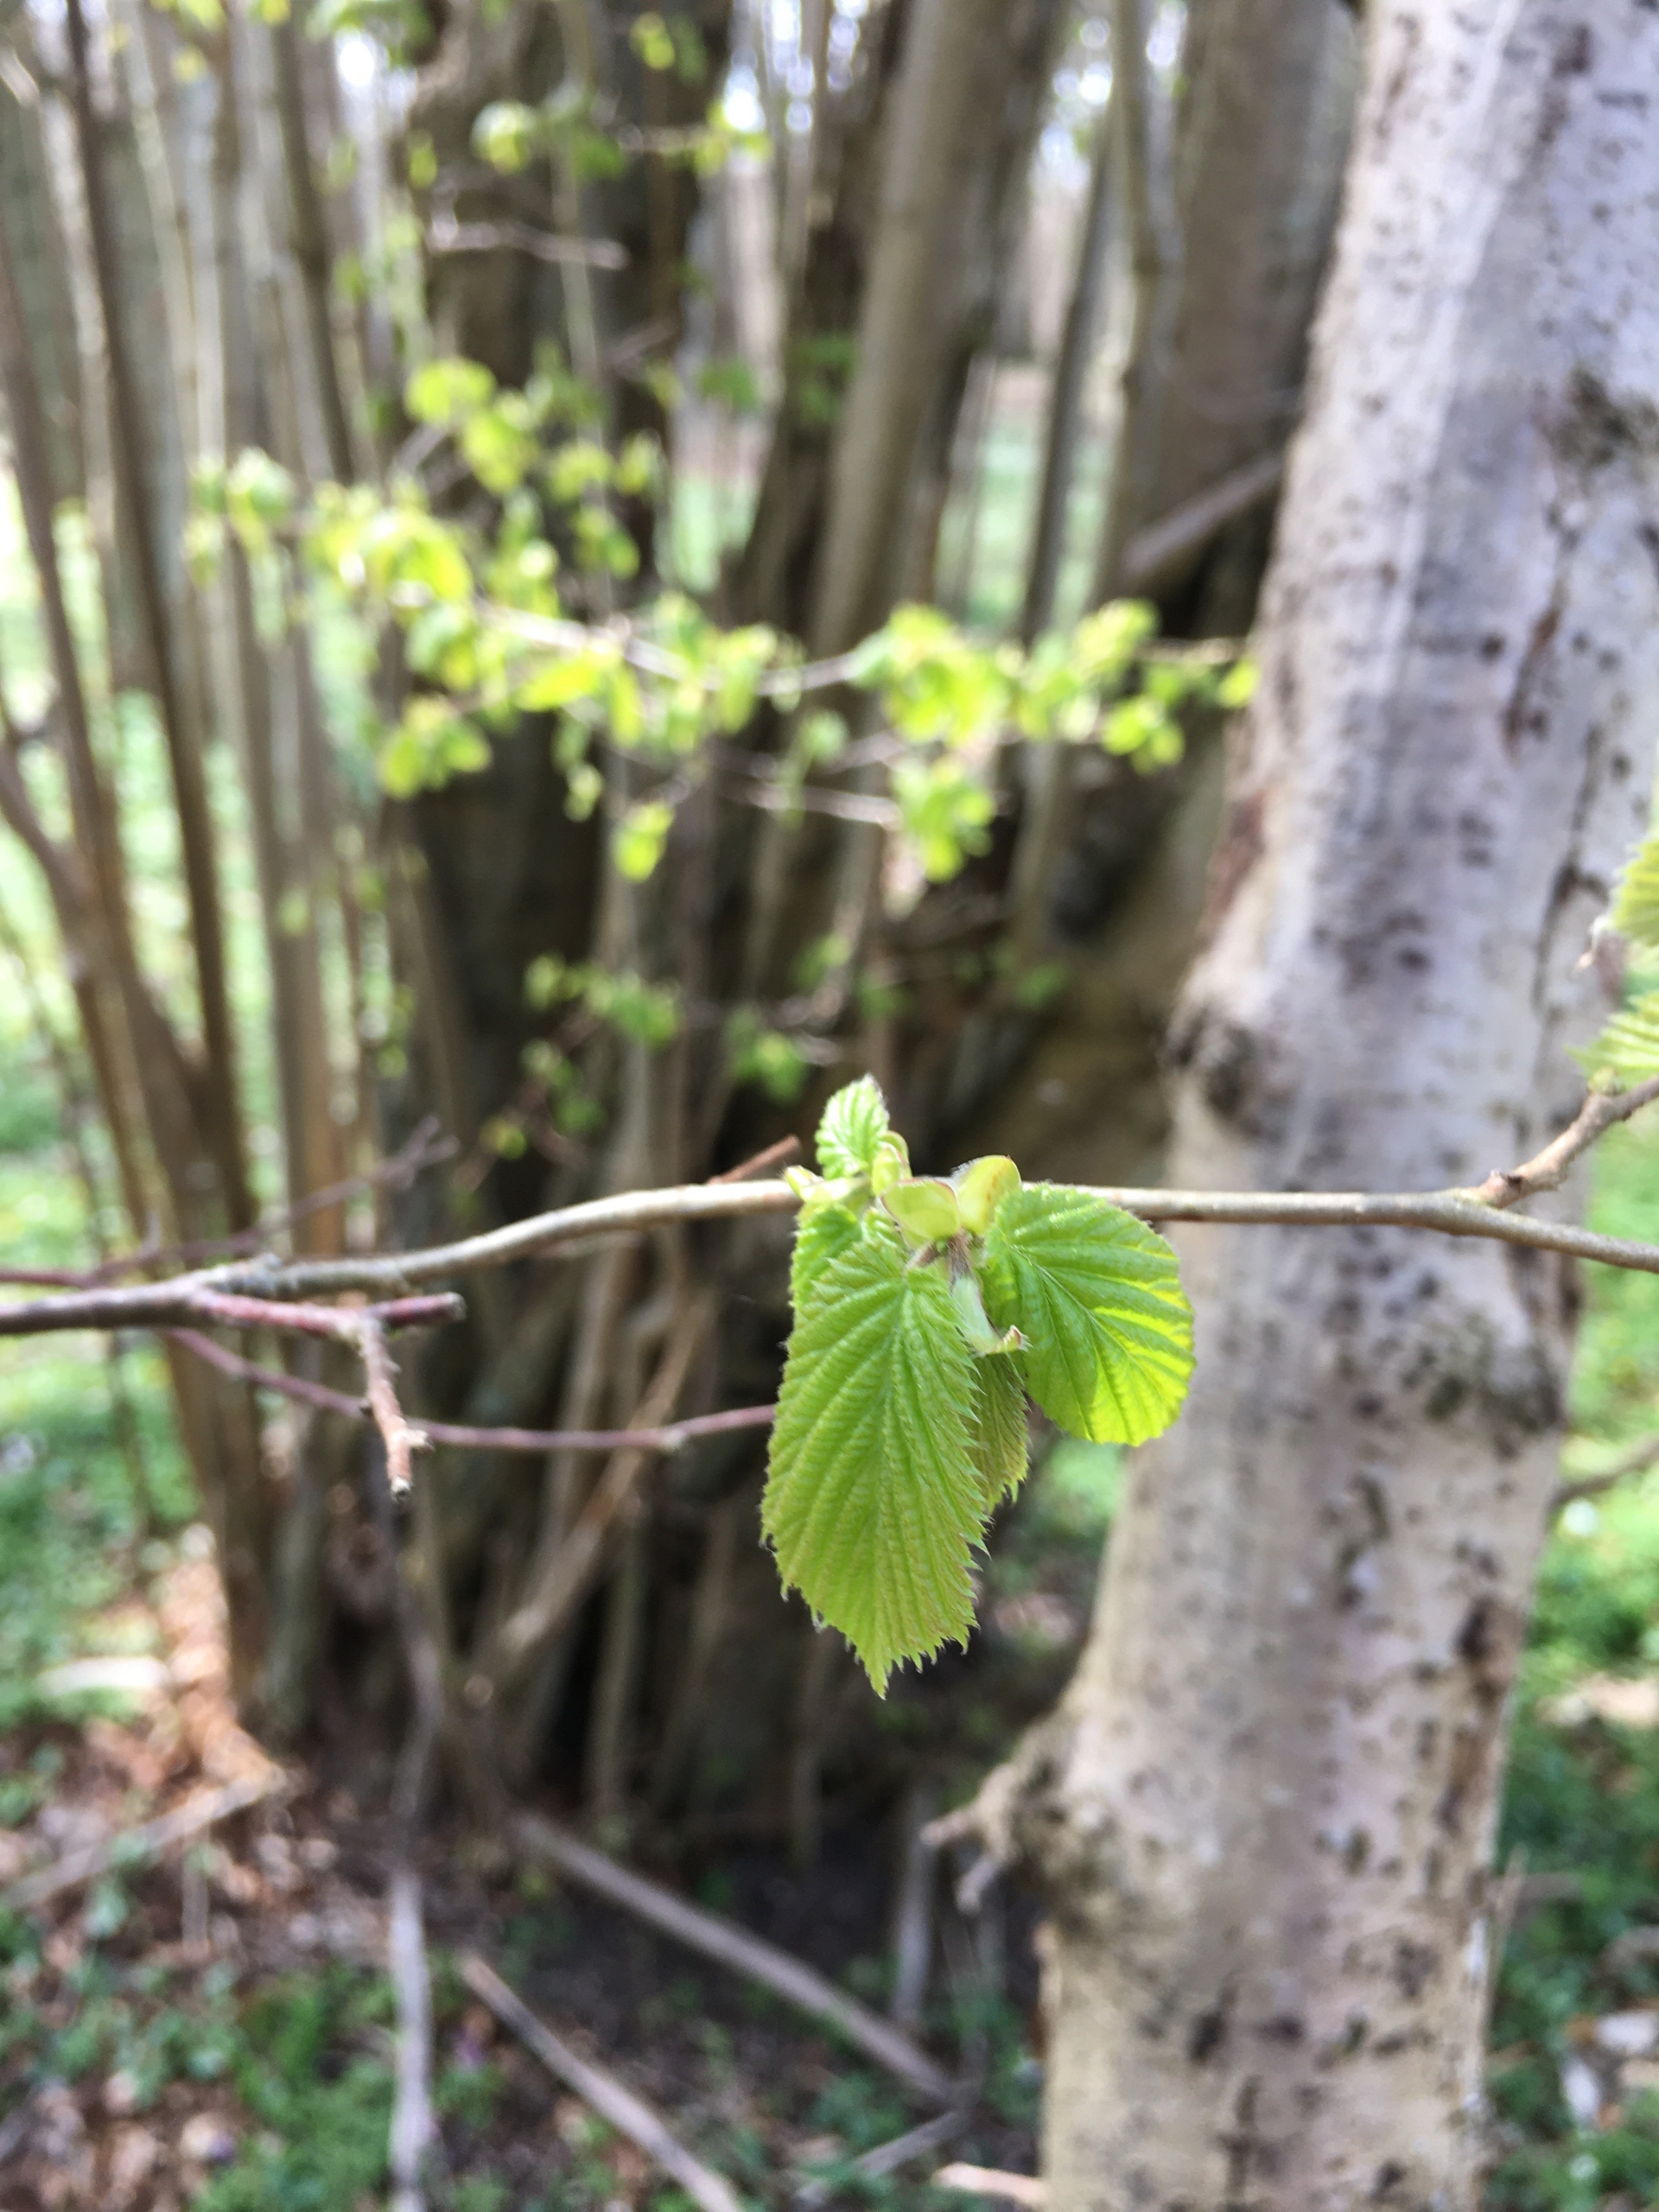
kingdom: Plantae
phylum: Tracheophyta
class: Magnoliopsida
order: Fagales
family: Betulaceae
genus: Corylus
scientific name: Corylus avellana
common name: Hassel
